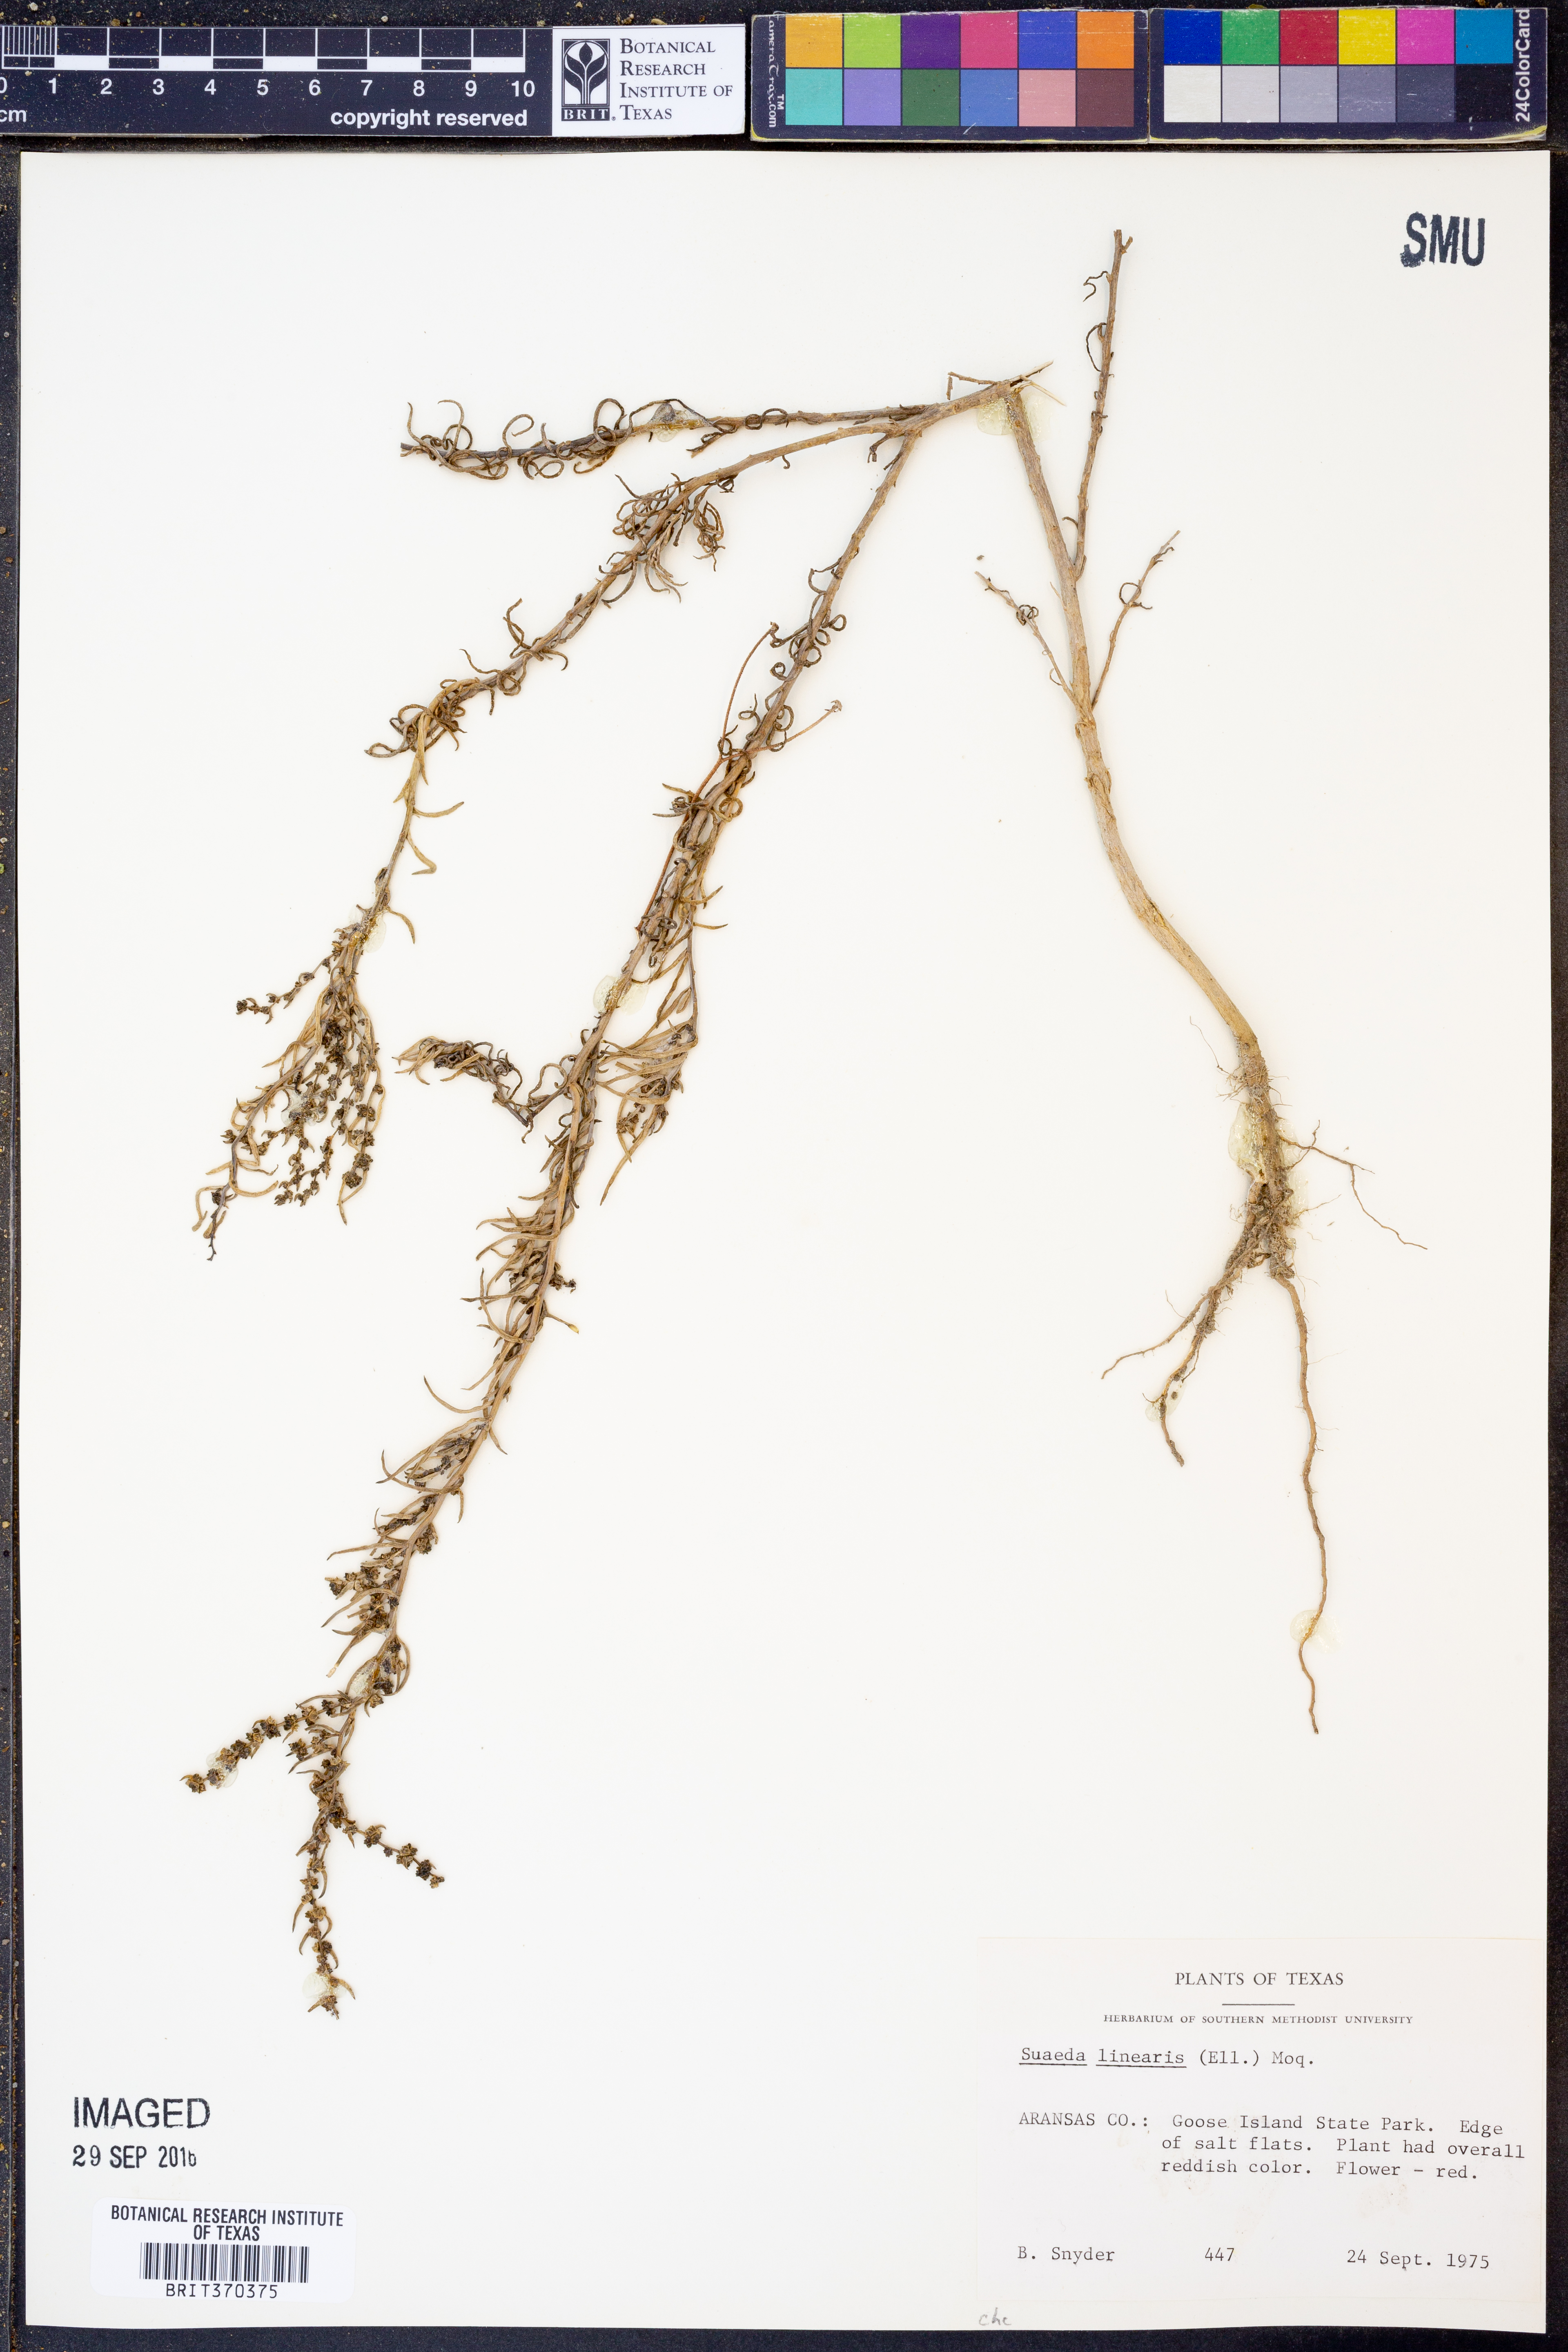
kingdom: Plantae
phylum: Tracheophyta
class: Magnoliopsida
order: Caryophyllales
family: Amaranthaceae
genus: Suaeda
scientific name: Suaeda linearis
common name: Annual seepweed
